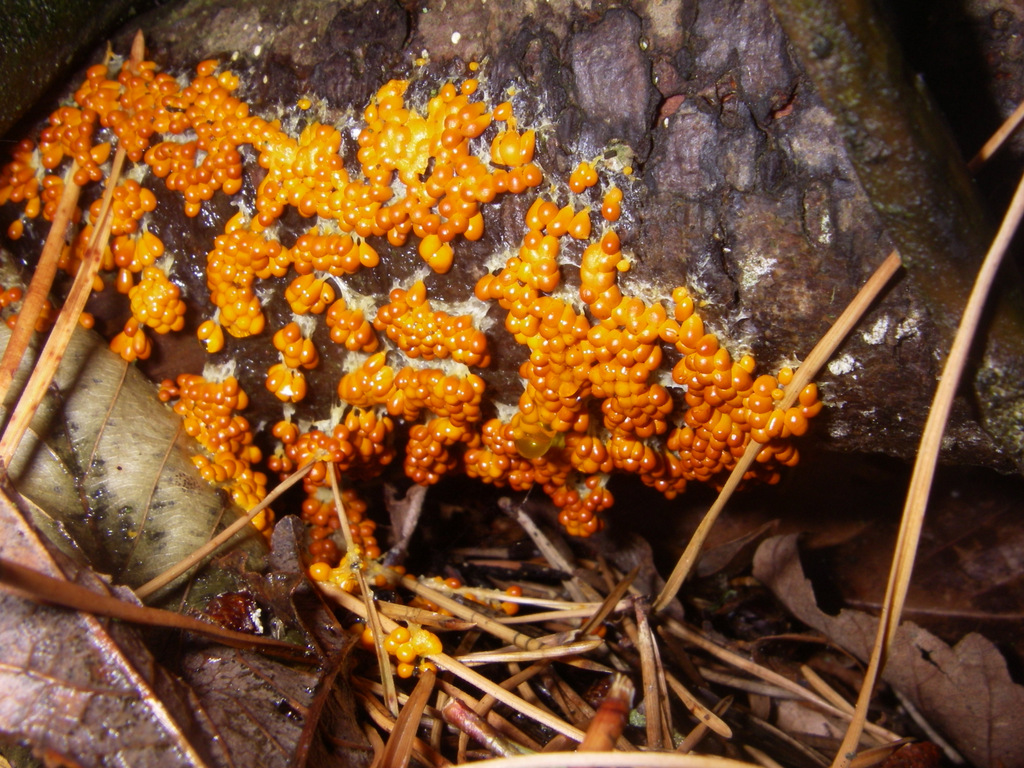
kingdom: Protozoa
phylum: Mycetozoa
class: Myxomycetes
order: Physarales
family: Physaraceae
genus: Leocarpus
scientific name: Leocarpus fragilis
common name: poleret glatfrø
